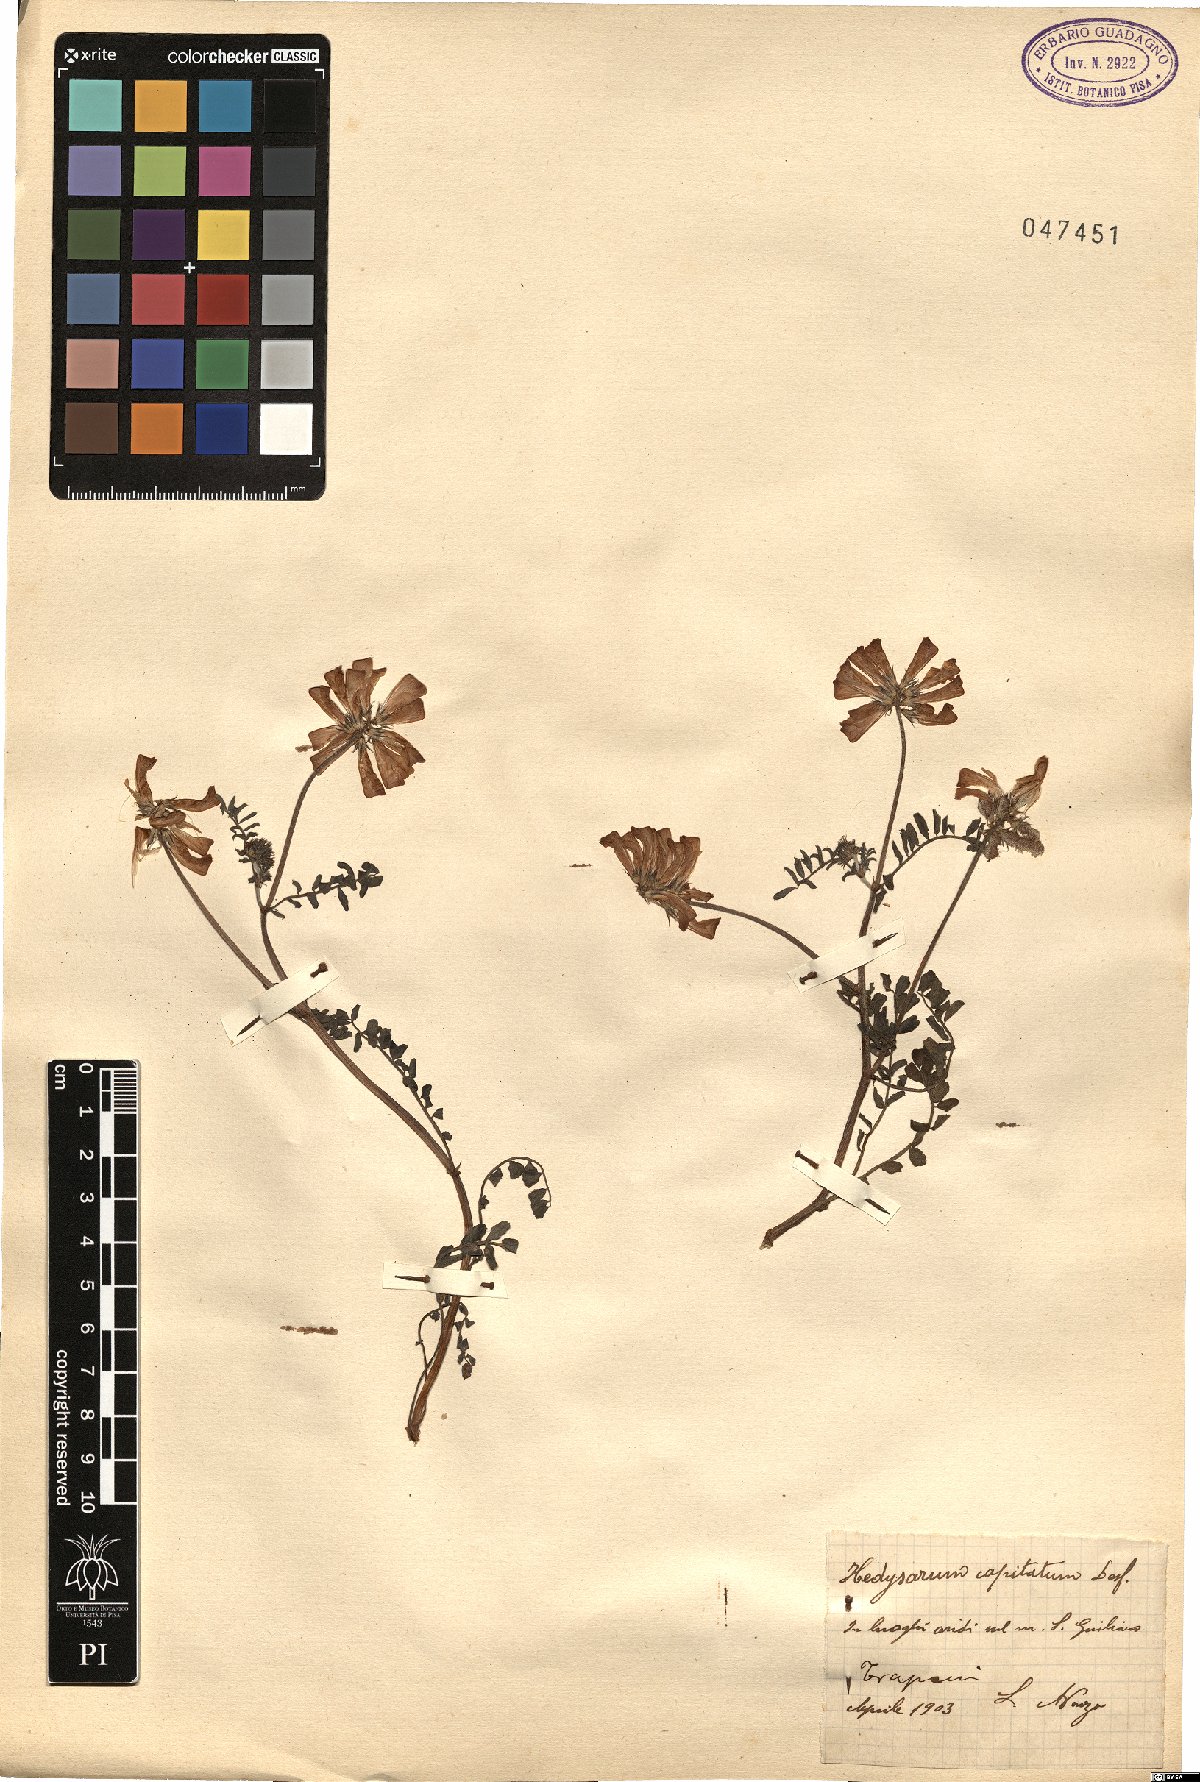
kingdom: Plantae
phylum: Tracheophyta
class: Magnoliopsida
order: Fabales
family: Fabaceae
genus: Sulla
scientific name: Sulla glomerata
